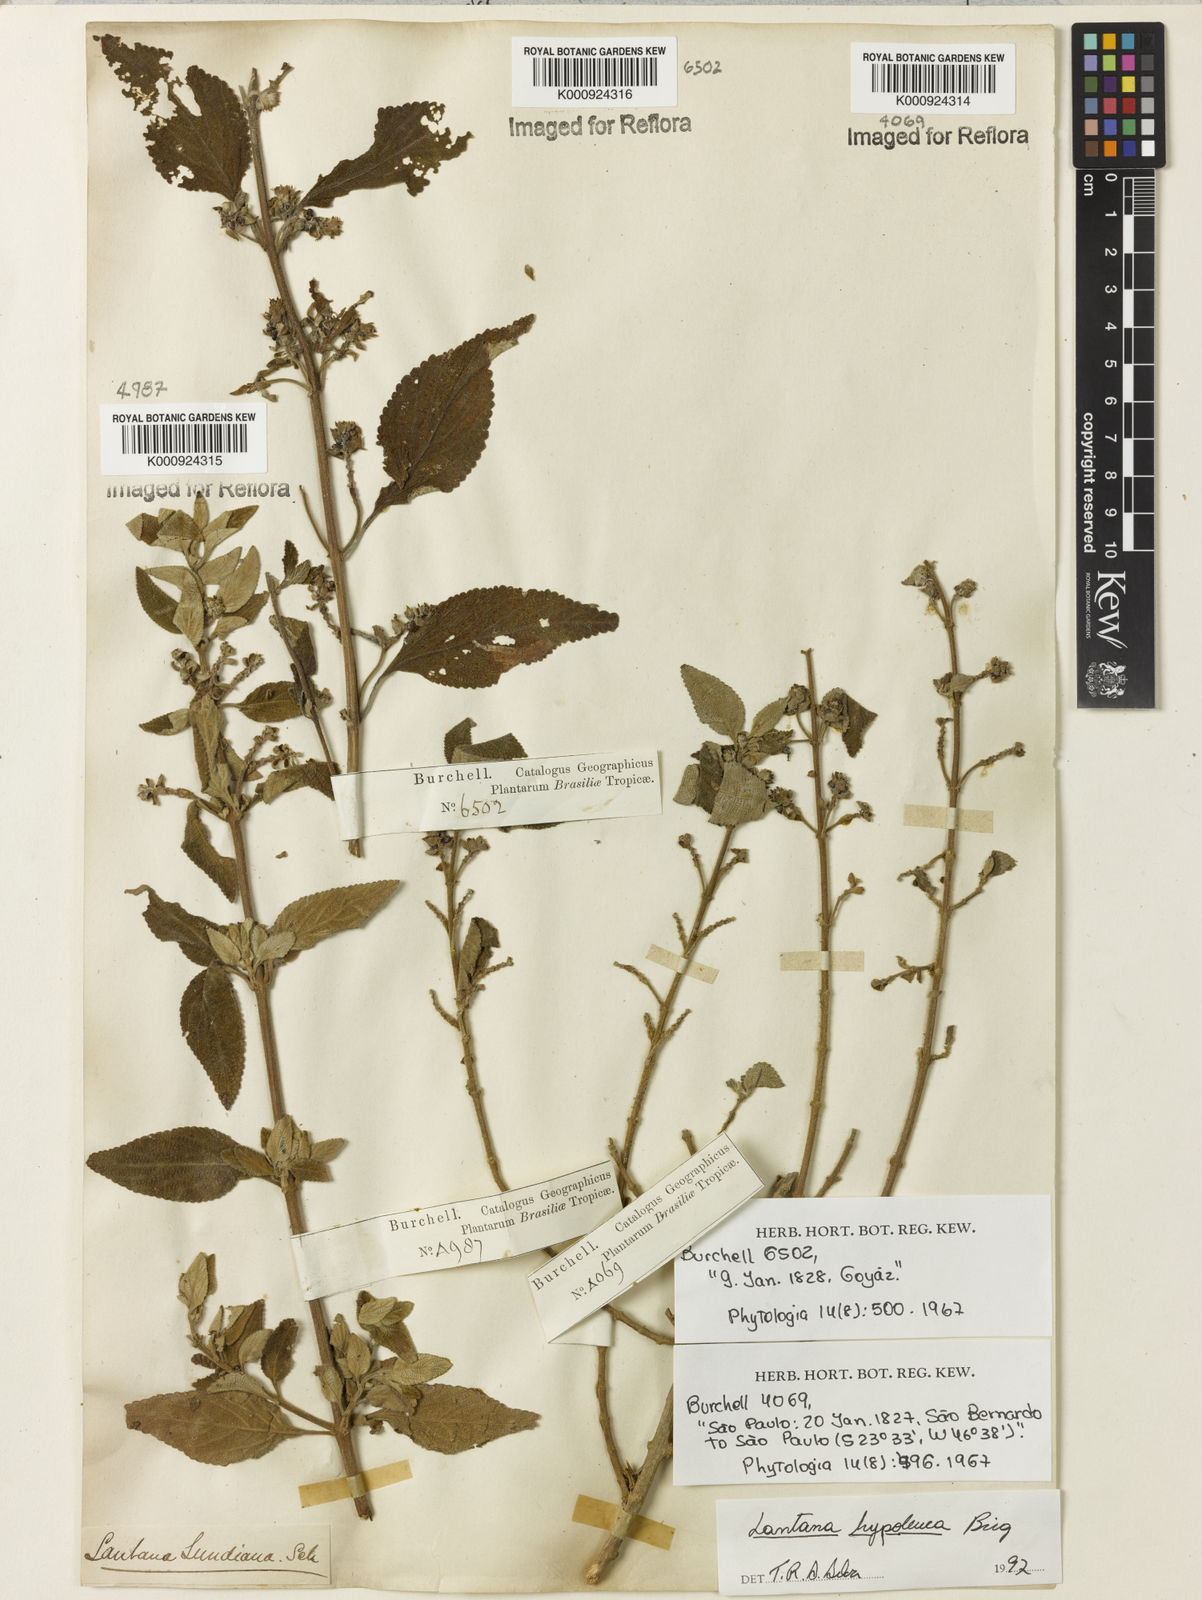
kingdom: Plantae
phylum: Tracheophyta
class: Magnoliopsida
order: Lamiales
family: Verbenaceae
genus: Lantana
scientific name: Lantana hypoleuca
